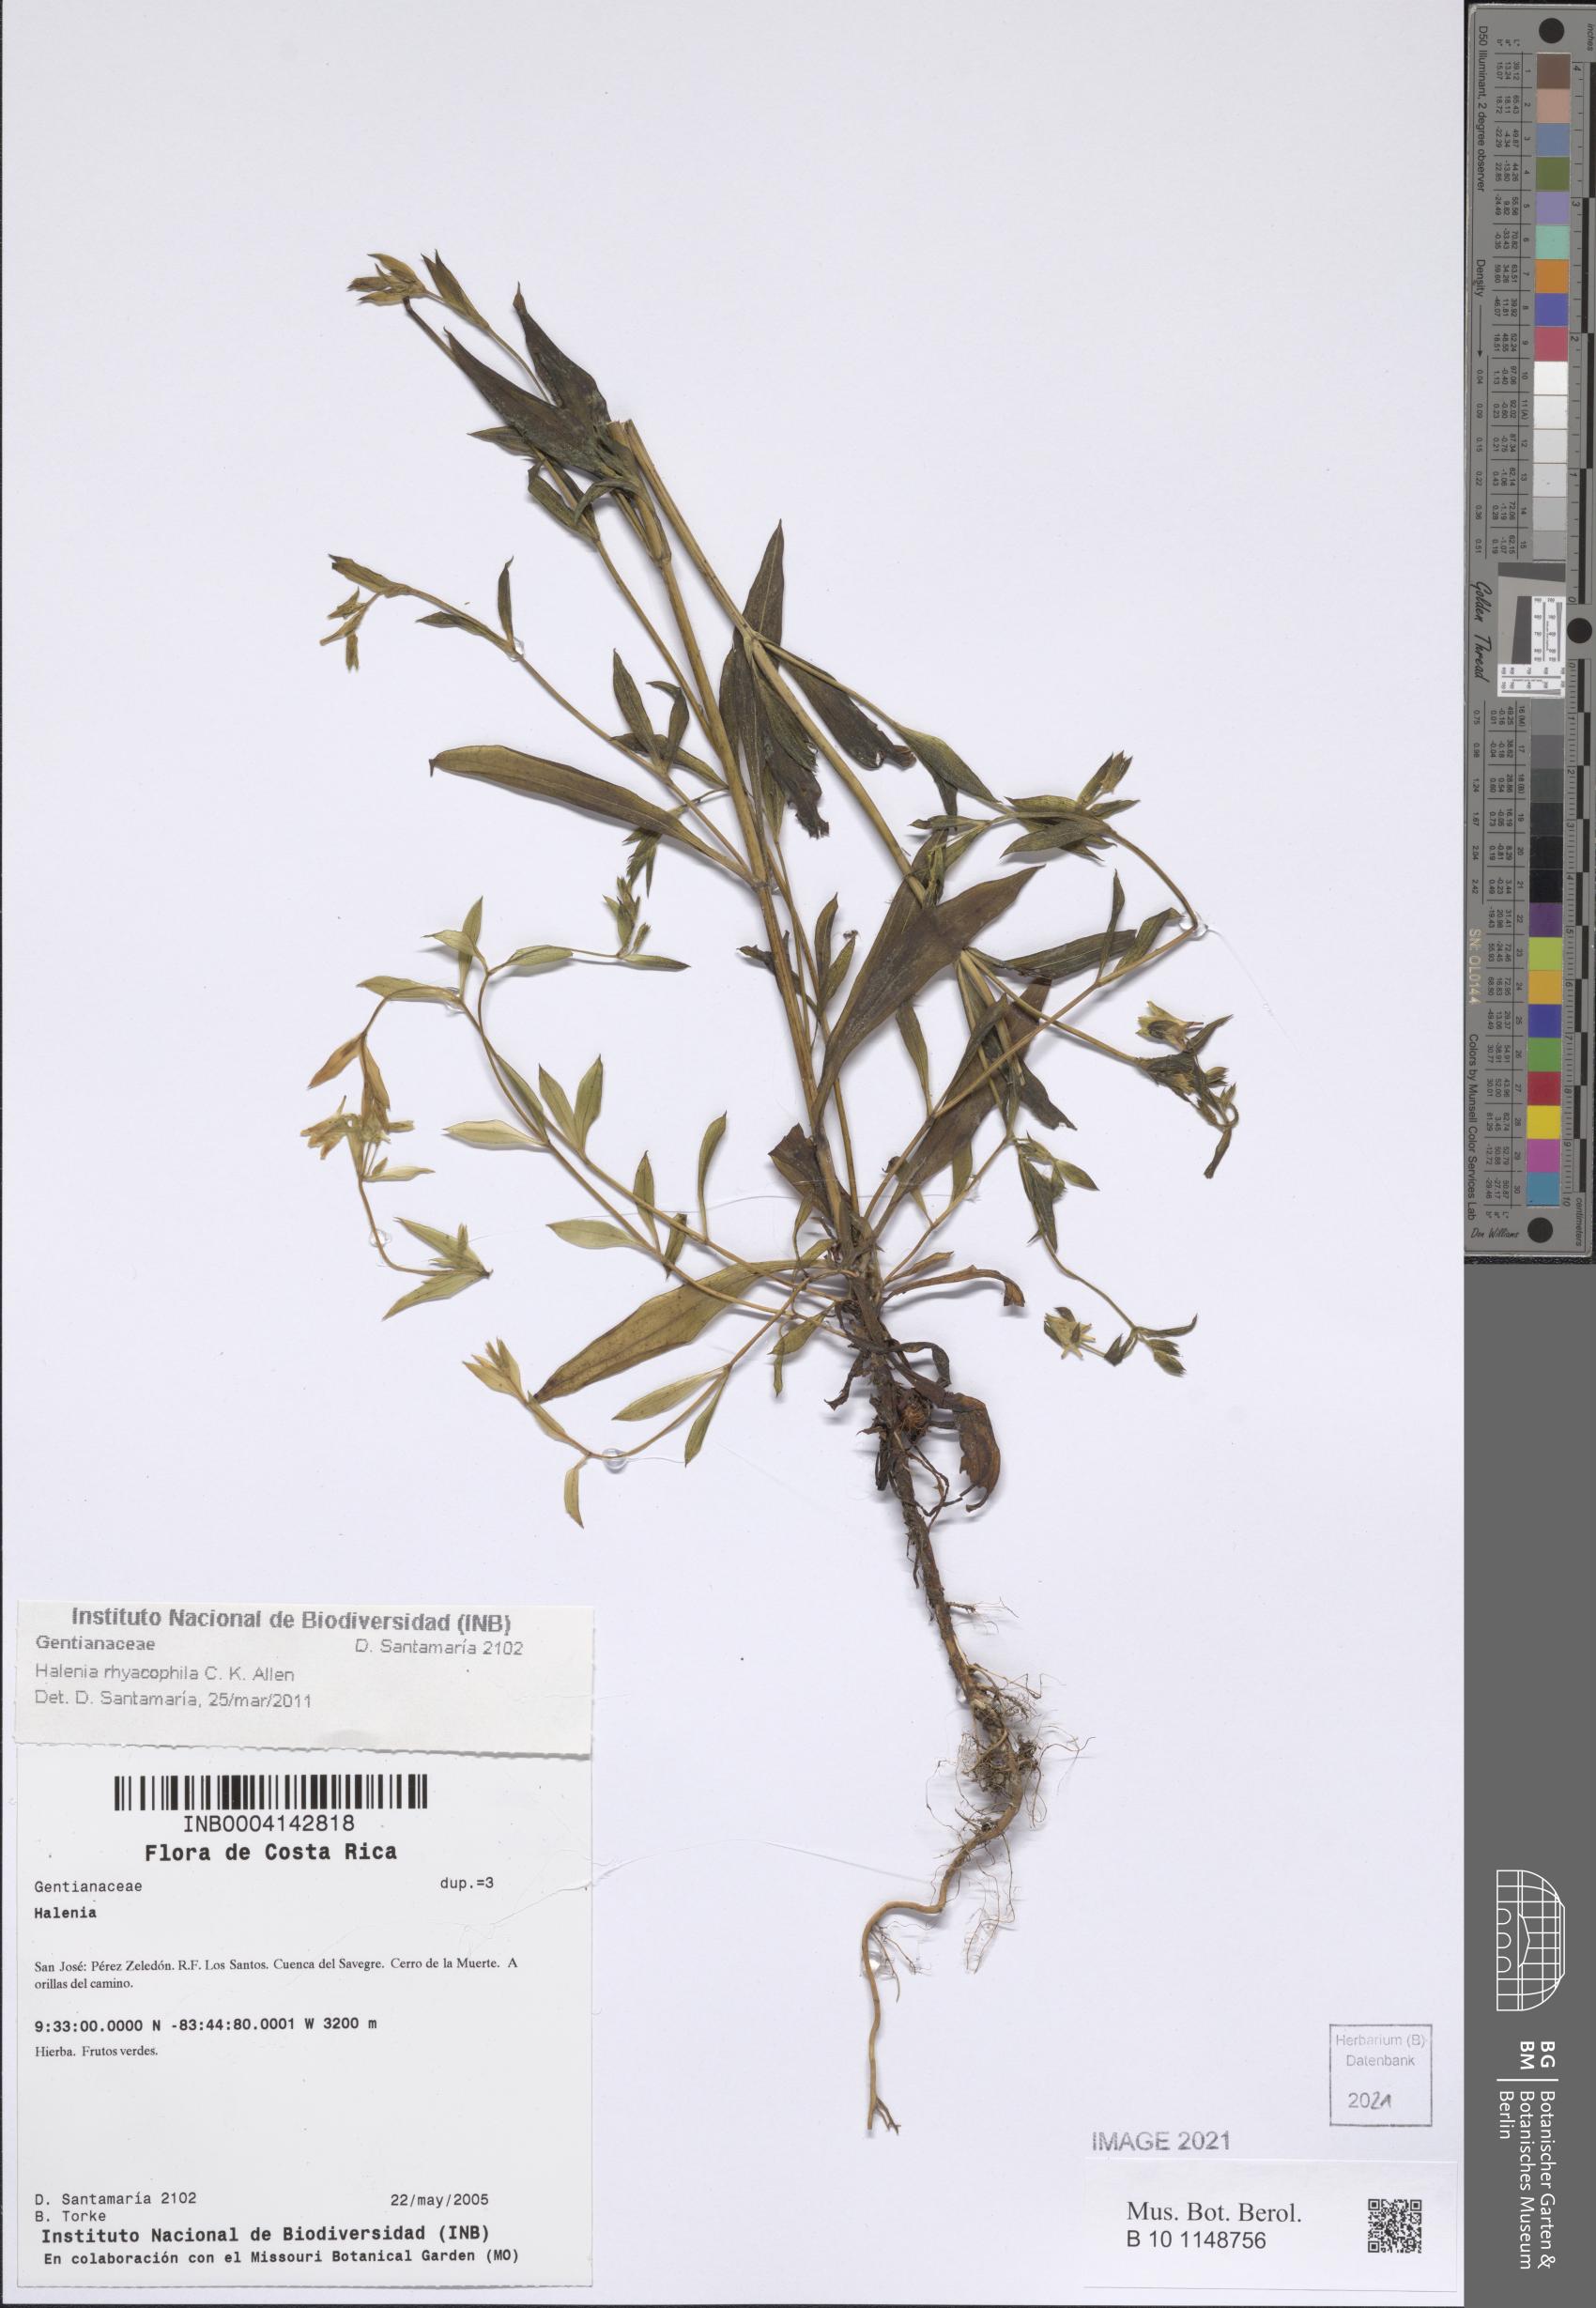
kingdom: Plantae
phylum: Tracheophyta
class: Magnoliopsida
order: Gentianales
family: Gentianaceae
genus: Halenia
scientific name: Halenia
